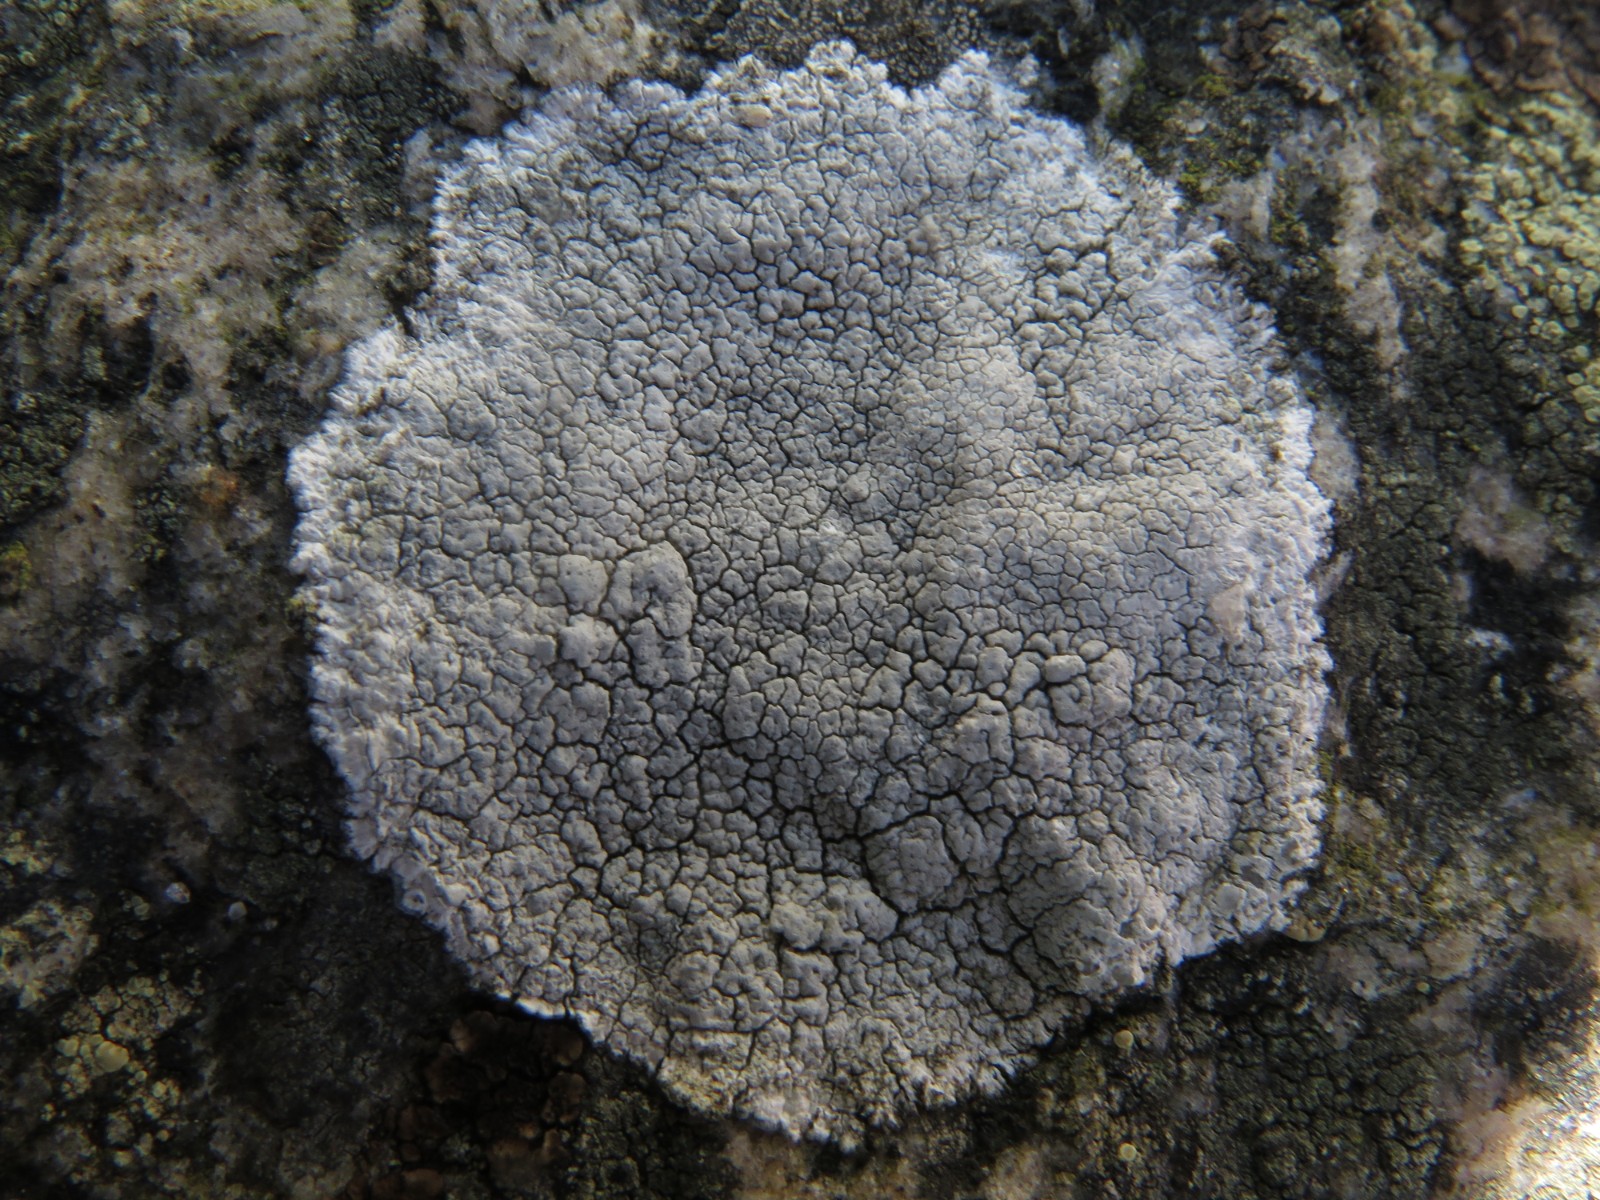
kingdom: Fungi
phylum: Ascomycota
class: Lecanoromycetes
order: Lecanorales
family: Lecanoraceae
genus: Glaucomaria
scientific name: Glaucomaria rupicola
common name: stengærde-kantskivelav
